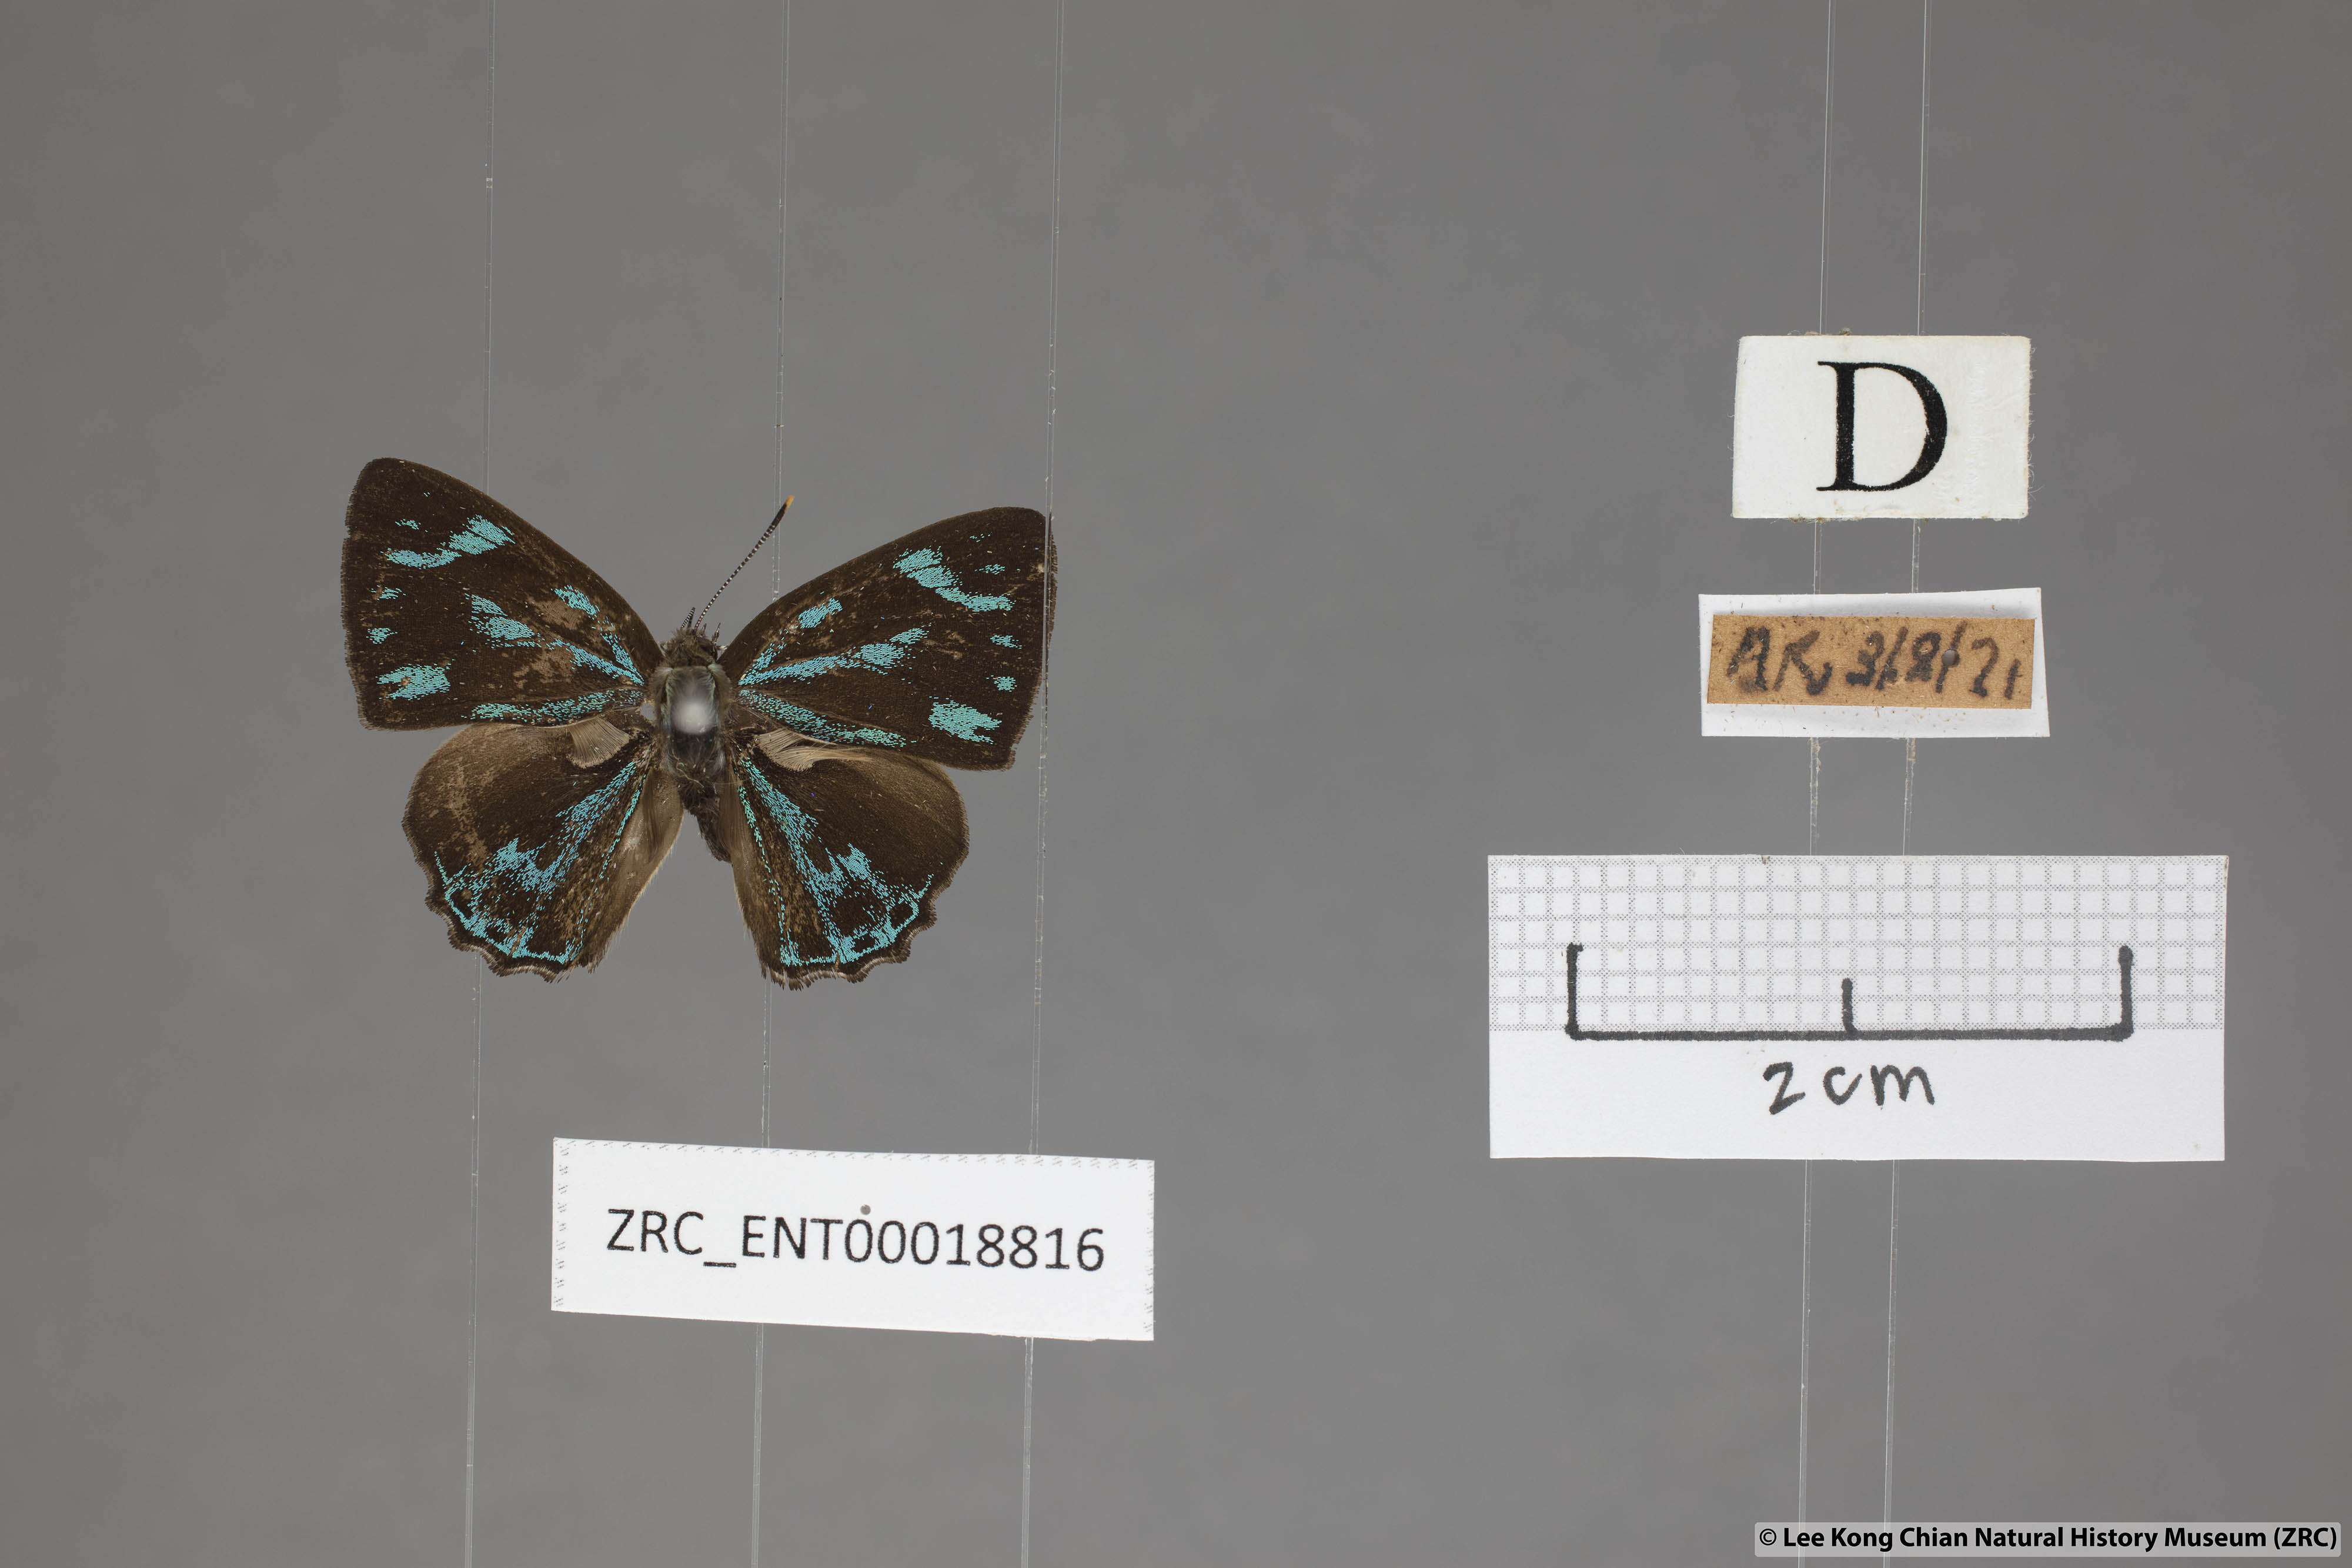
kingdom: Animalia
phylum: Arthropoda
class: Insecta
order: Lepidoptera
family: Lycaenidae
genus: Poritia
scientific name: Poritia philota
